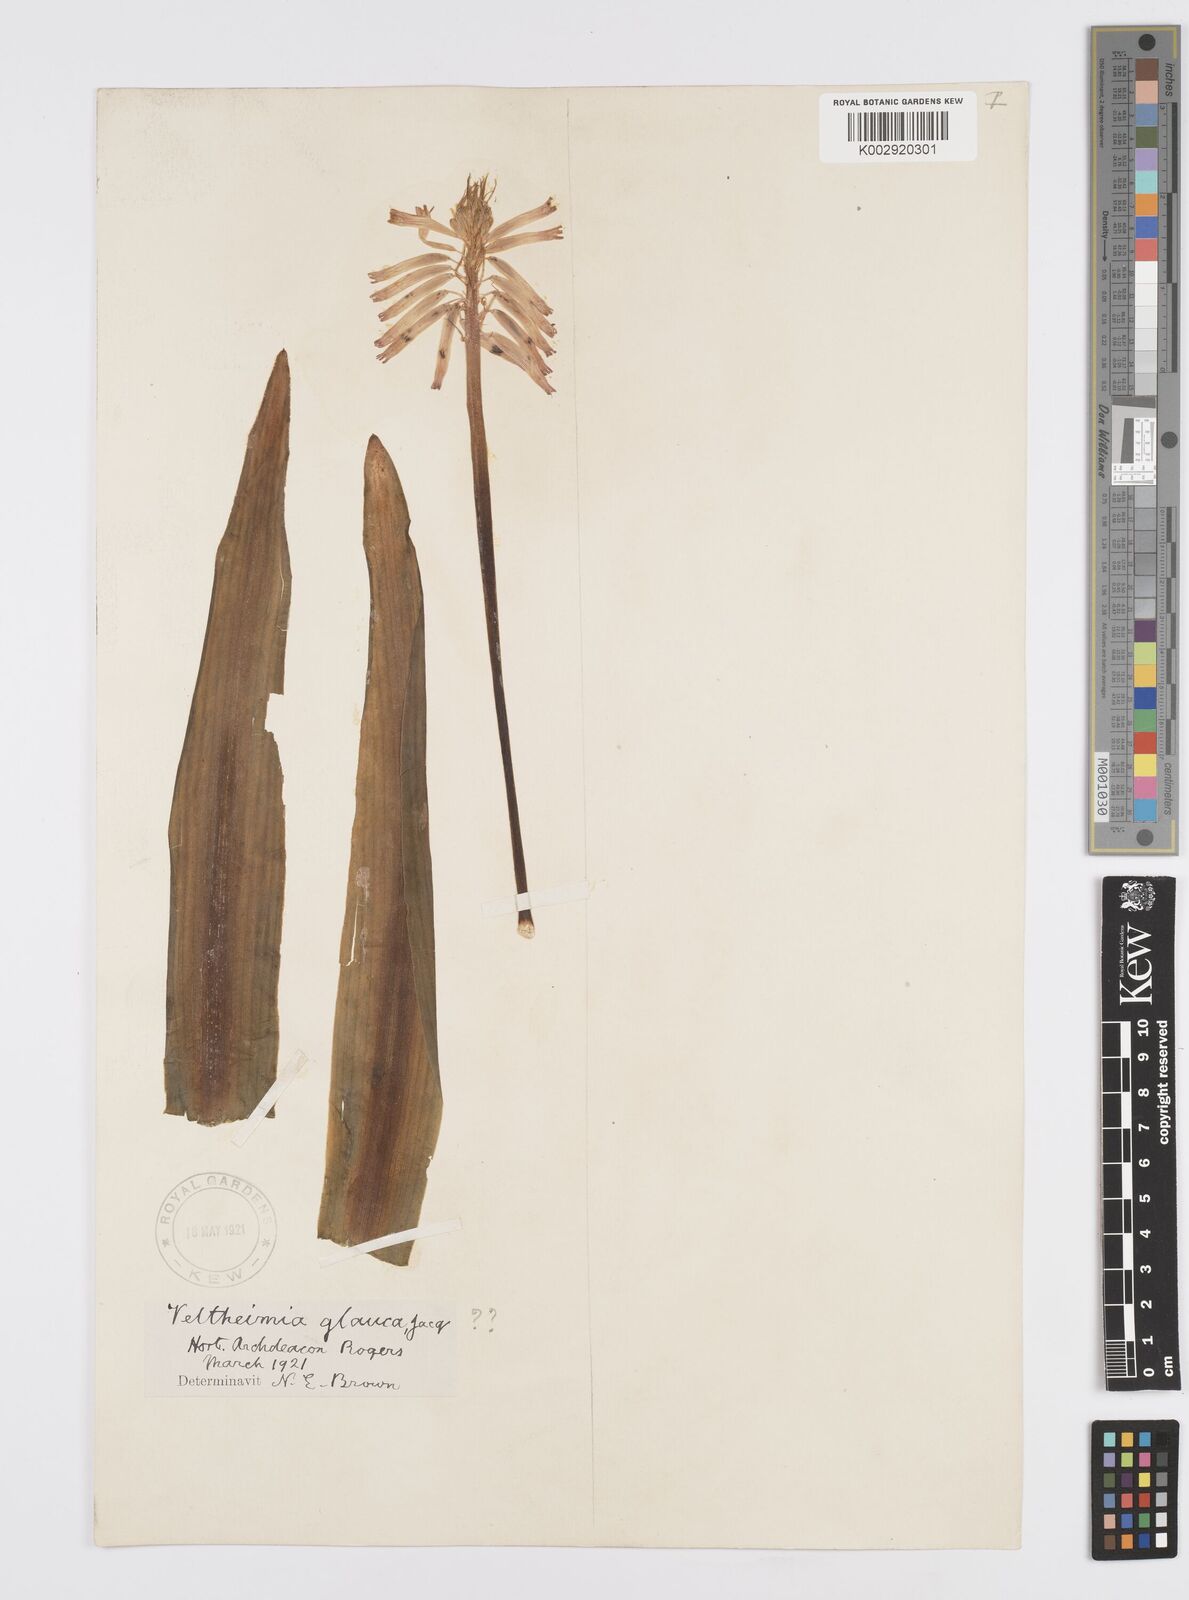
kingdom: Plantae
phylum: Tracheophyta
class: Liliopsida
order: Asparagales
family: Asparagaceae
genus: Veltheimia
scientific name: Veltheimia capensis
